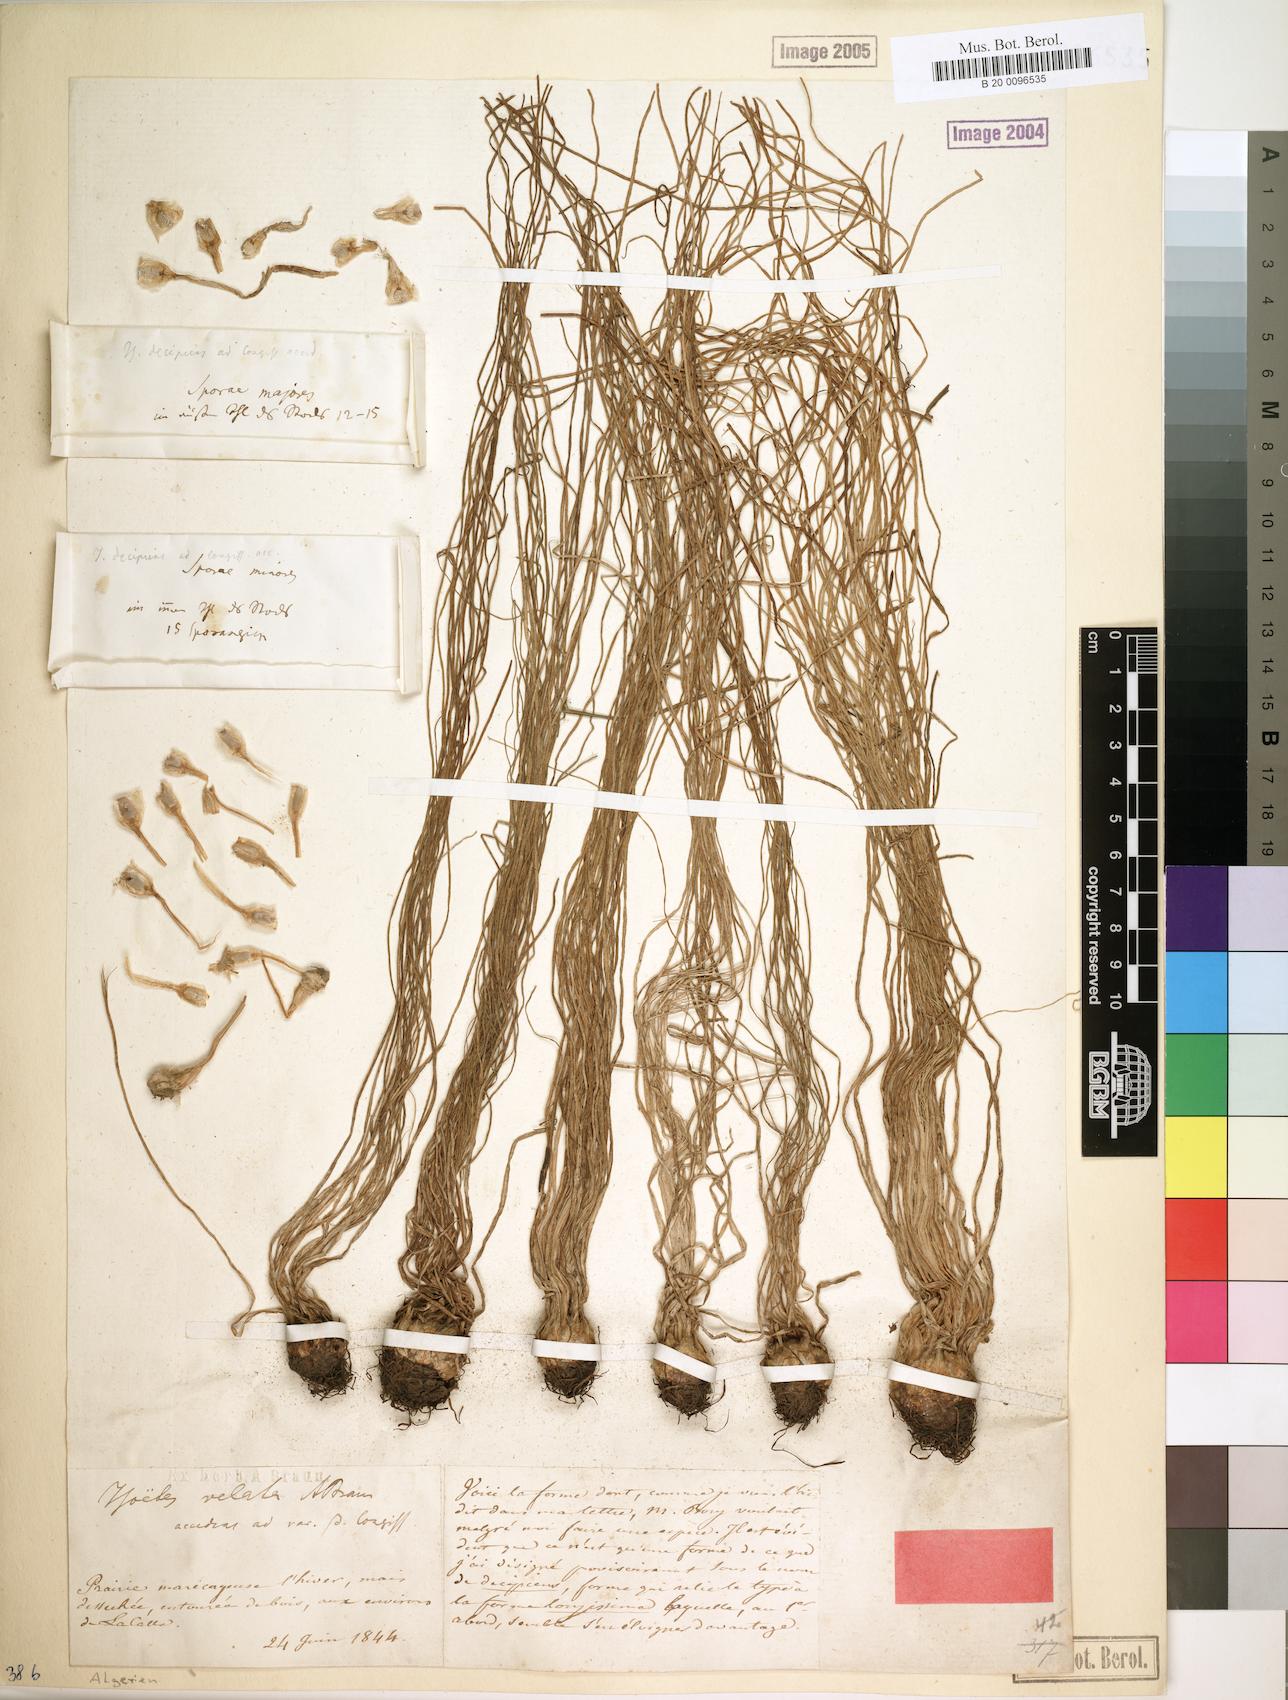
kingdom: Plantae
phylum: Tracheophyta
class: Lycopodiopsida
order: Isoetales
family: Isoetaceae
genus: Isoetes
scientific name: Isoetes longissima
